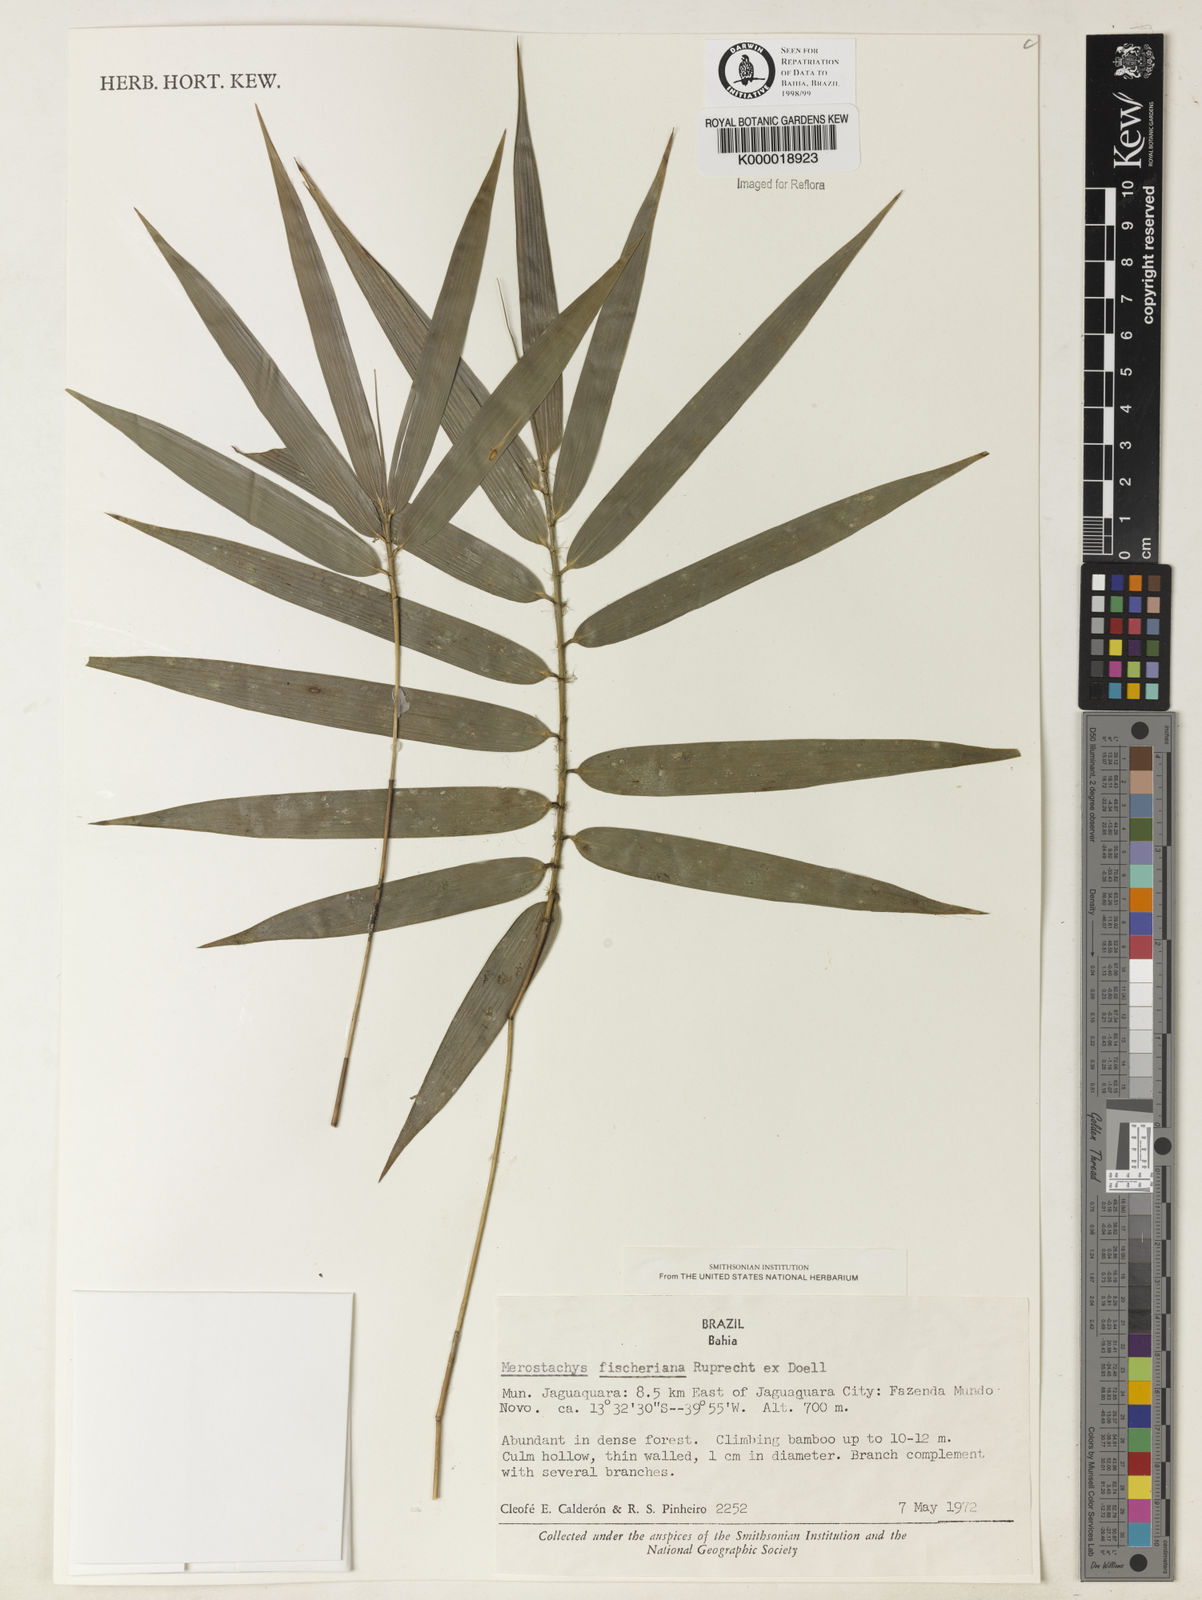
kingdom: Plantae
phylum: Tracheophyta
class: Liliopsida
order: Poales
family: Poaceae
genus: Merostachys
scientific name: Merostachys
